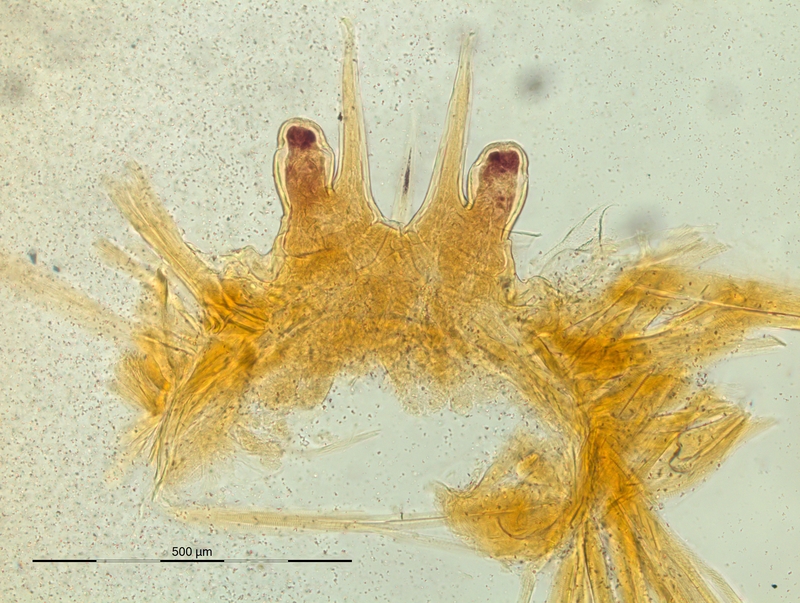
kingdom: Animalia
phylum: Arthropoda
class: Diplopoda
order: Chordeumatida
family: Craspedosomatidae
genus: Macheiriophoron
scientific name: Macheiriophoron verhoeffi
